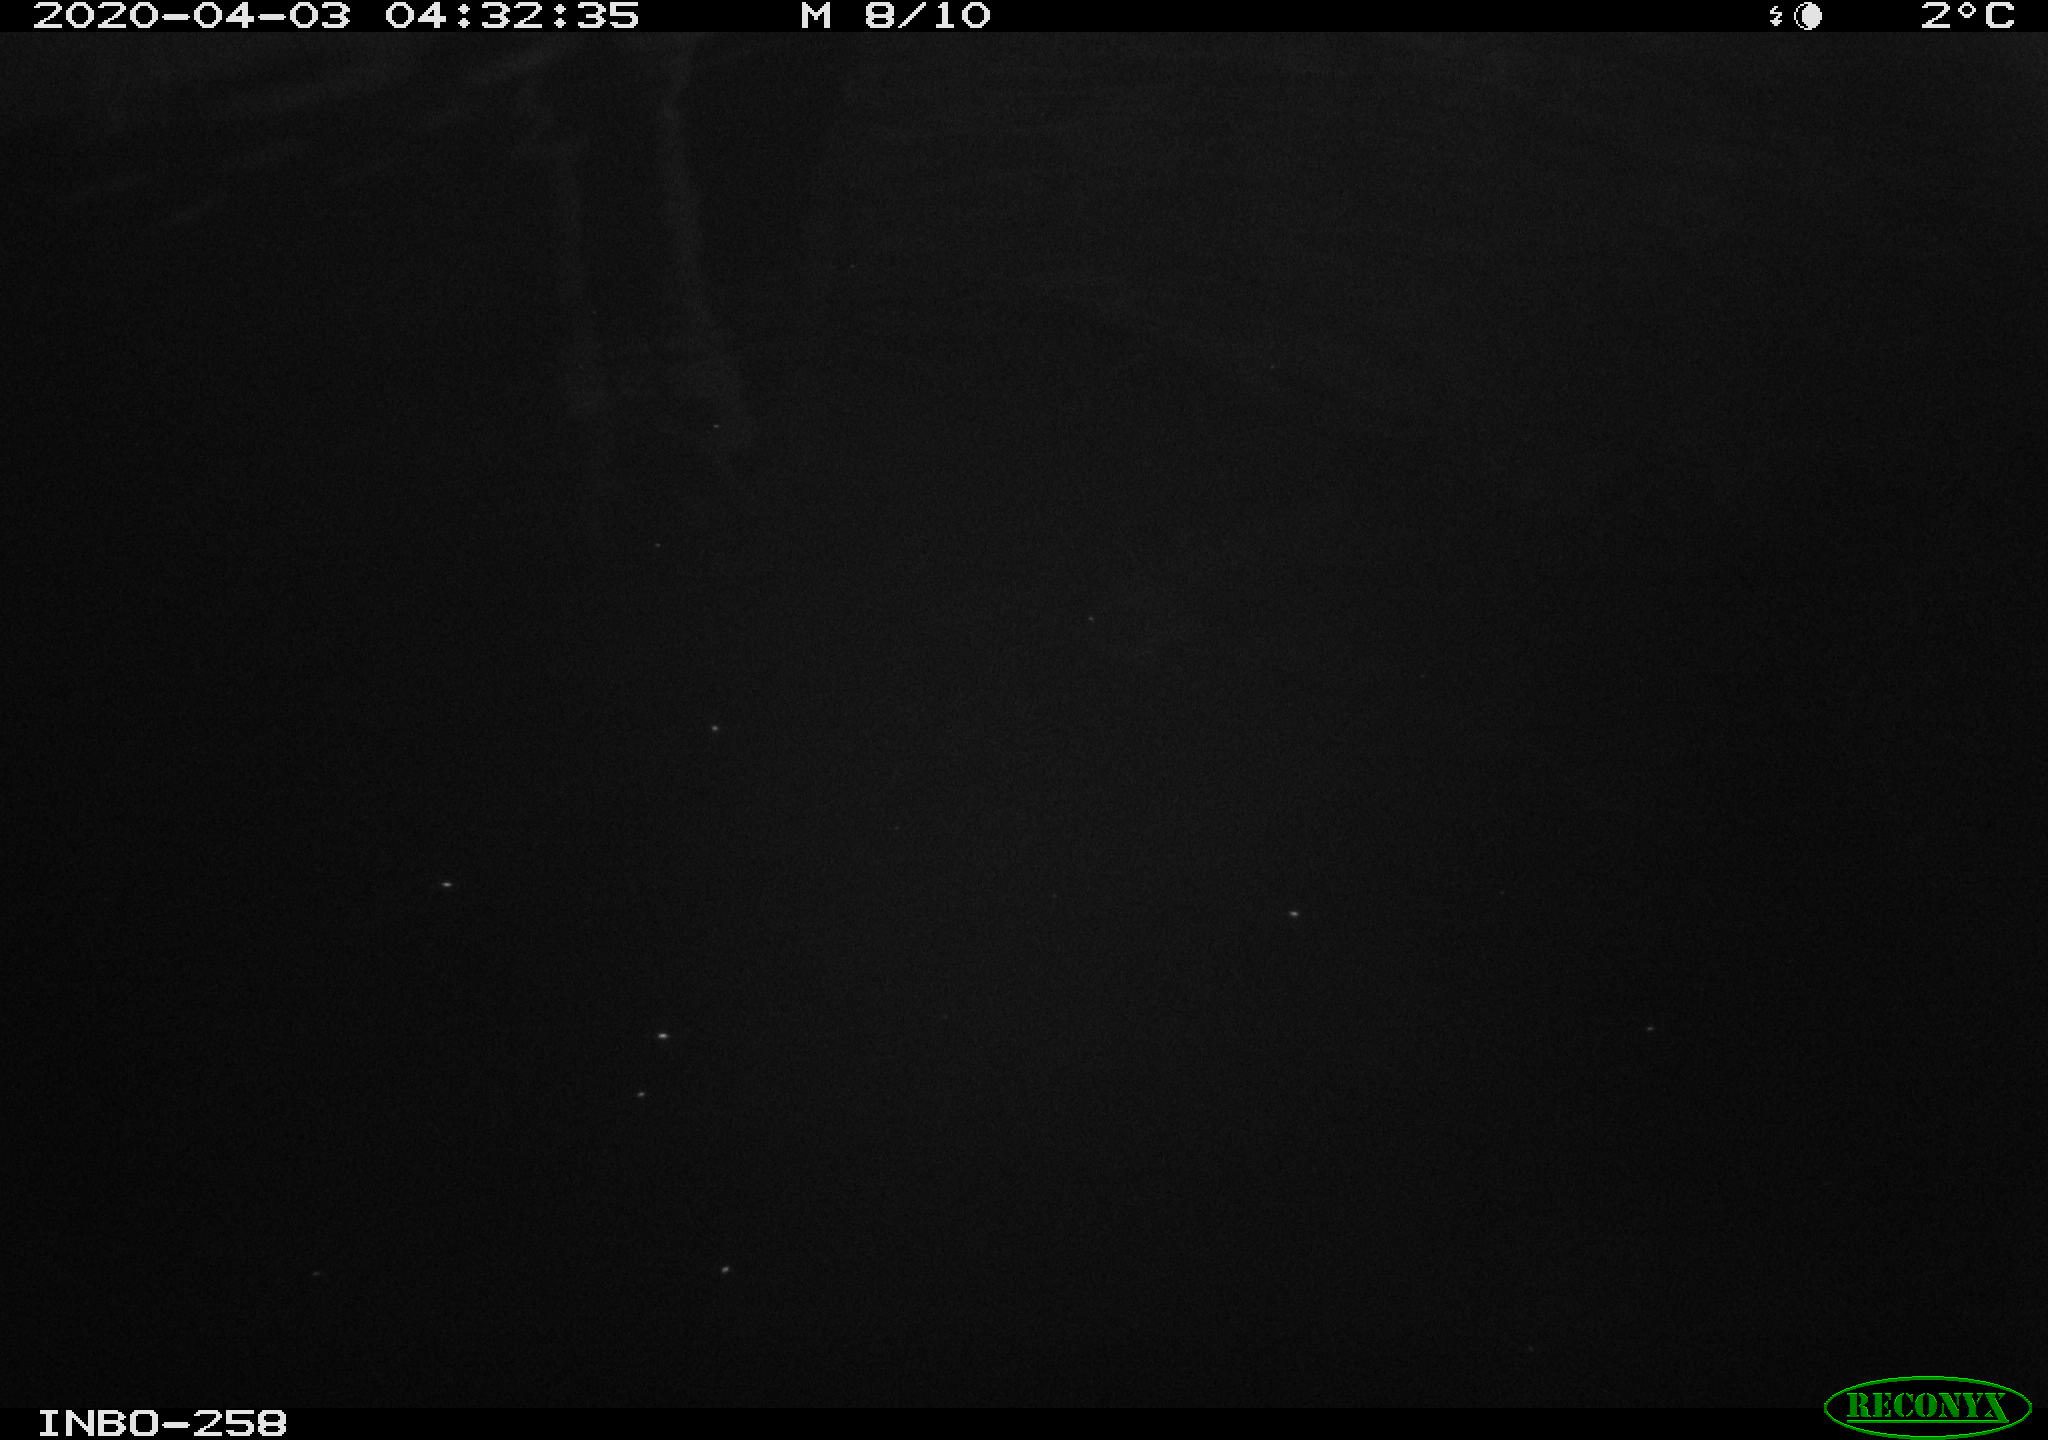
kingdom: Animalia
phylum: Chordata
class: Aves
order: Anseriformes
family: Anatidae
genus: Anas
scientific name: Anas platyrhynchos
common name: Mallard
